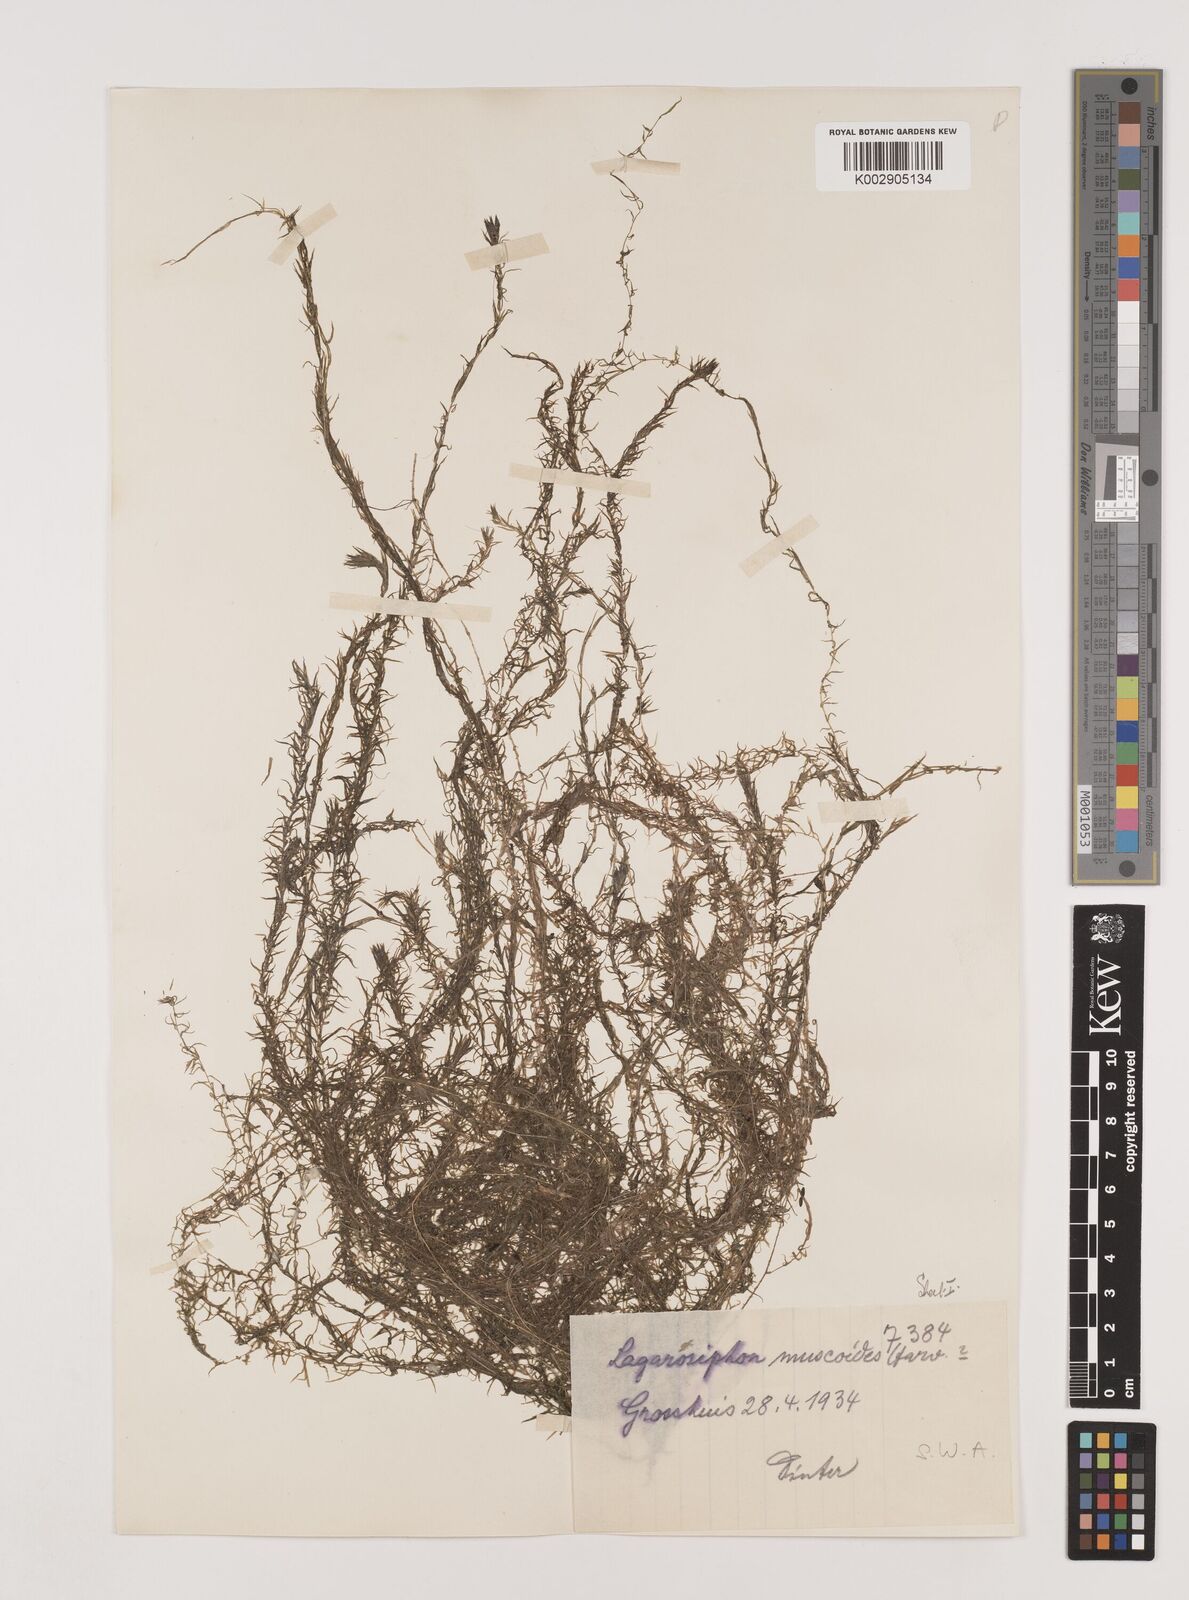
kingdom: Plantae
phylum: Tracheophyta
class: Liliopsida
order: Alismatales
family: Hydrocharitaceae
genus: Lagarosiphon
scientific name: Lagarosiphon muscoides
